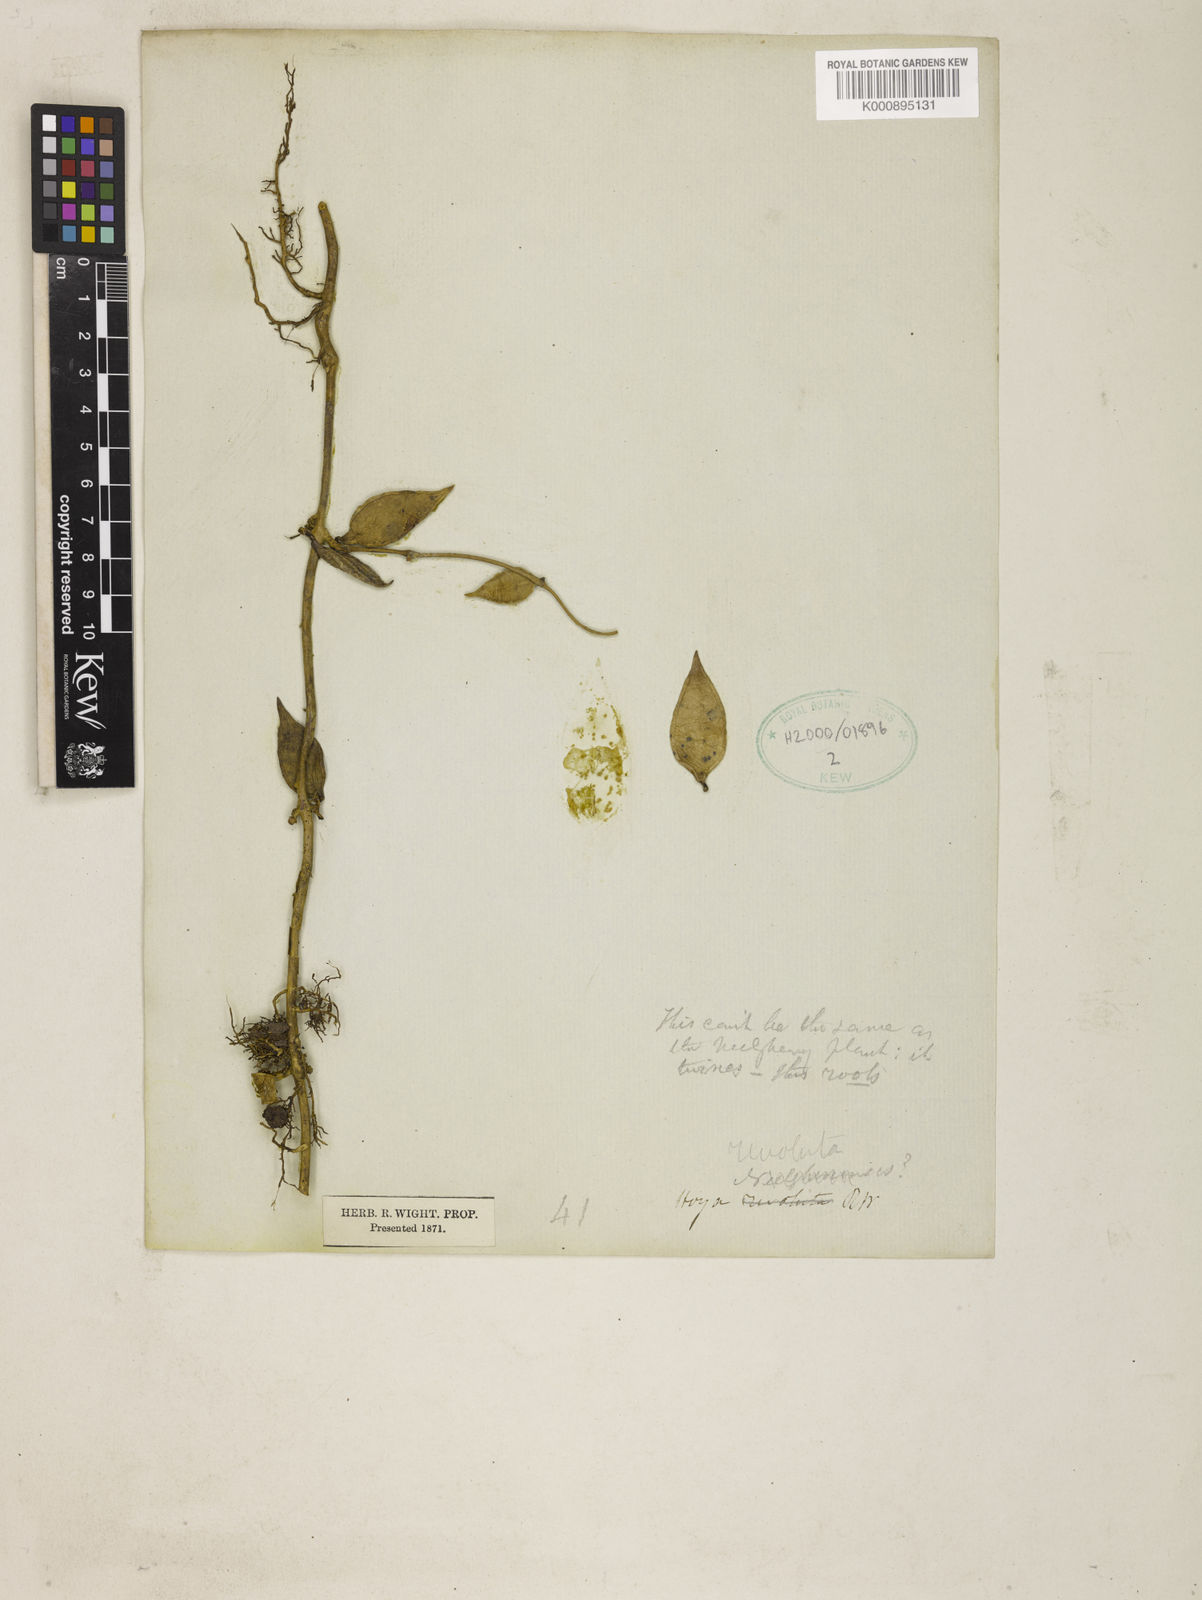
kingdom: Plantae
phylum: Tracheophyta
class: Magnoliopsida
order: Gentianales
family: Apocynaceae
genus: Hoya
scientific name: Hoya revoluta
